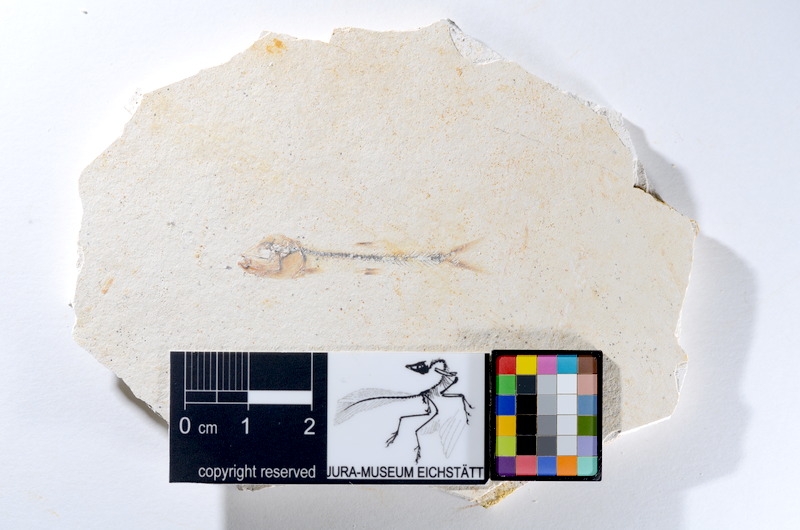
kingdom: Animalia
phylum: Chordata
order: Salmoniformes
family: Orthogonikleithridae
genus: Orthogonikleithrus
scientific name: Orthogonikleithrus hoelli
